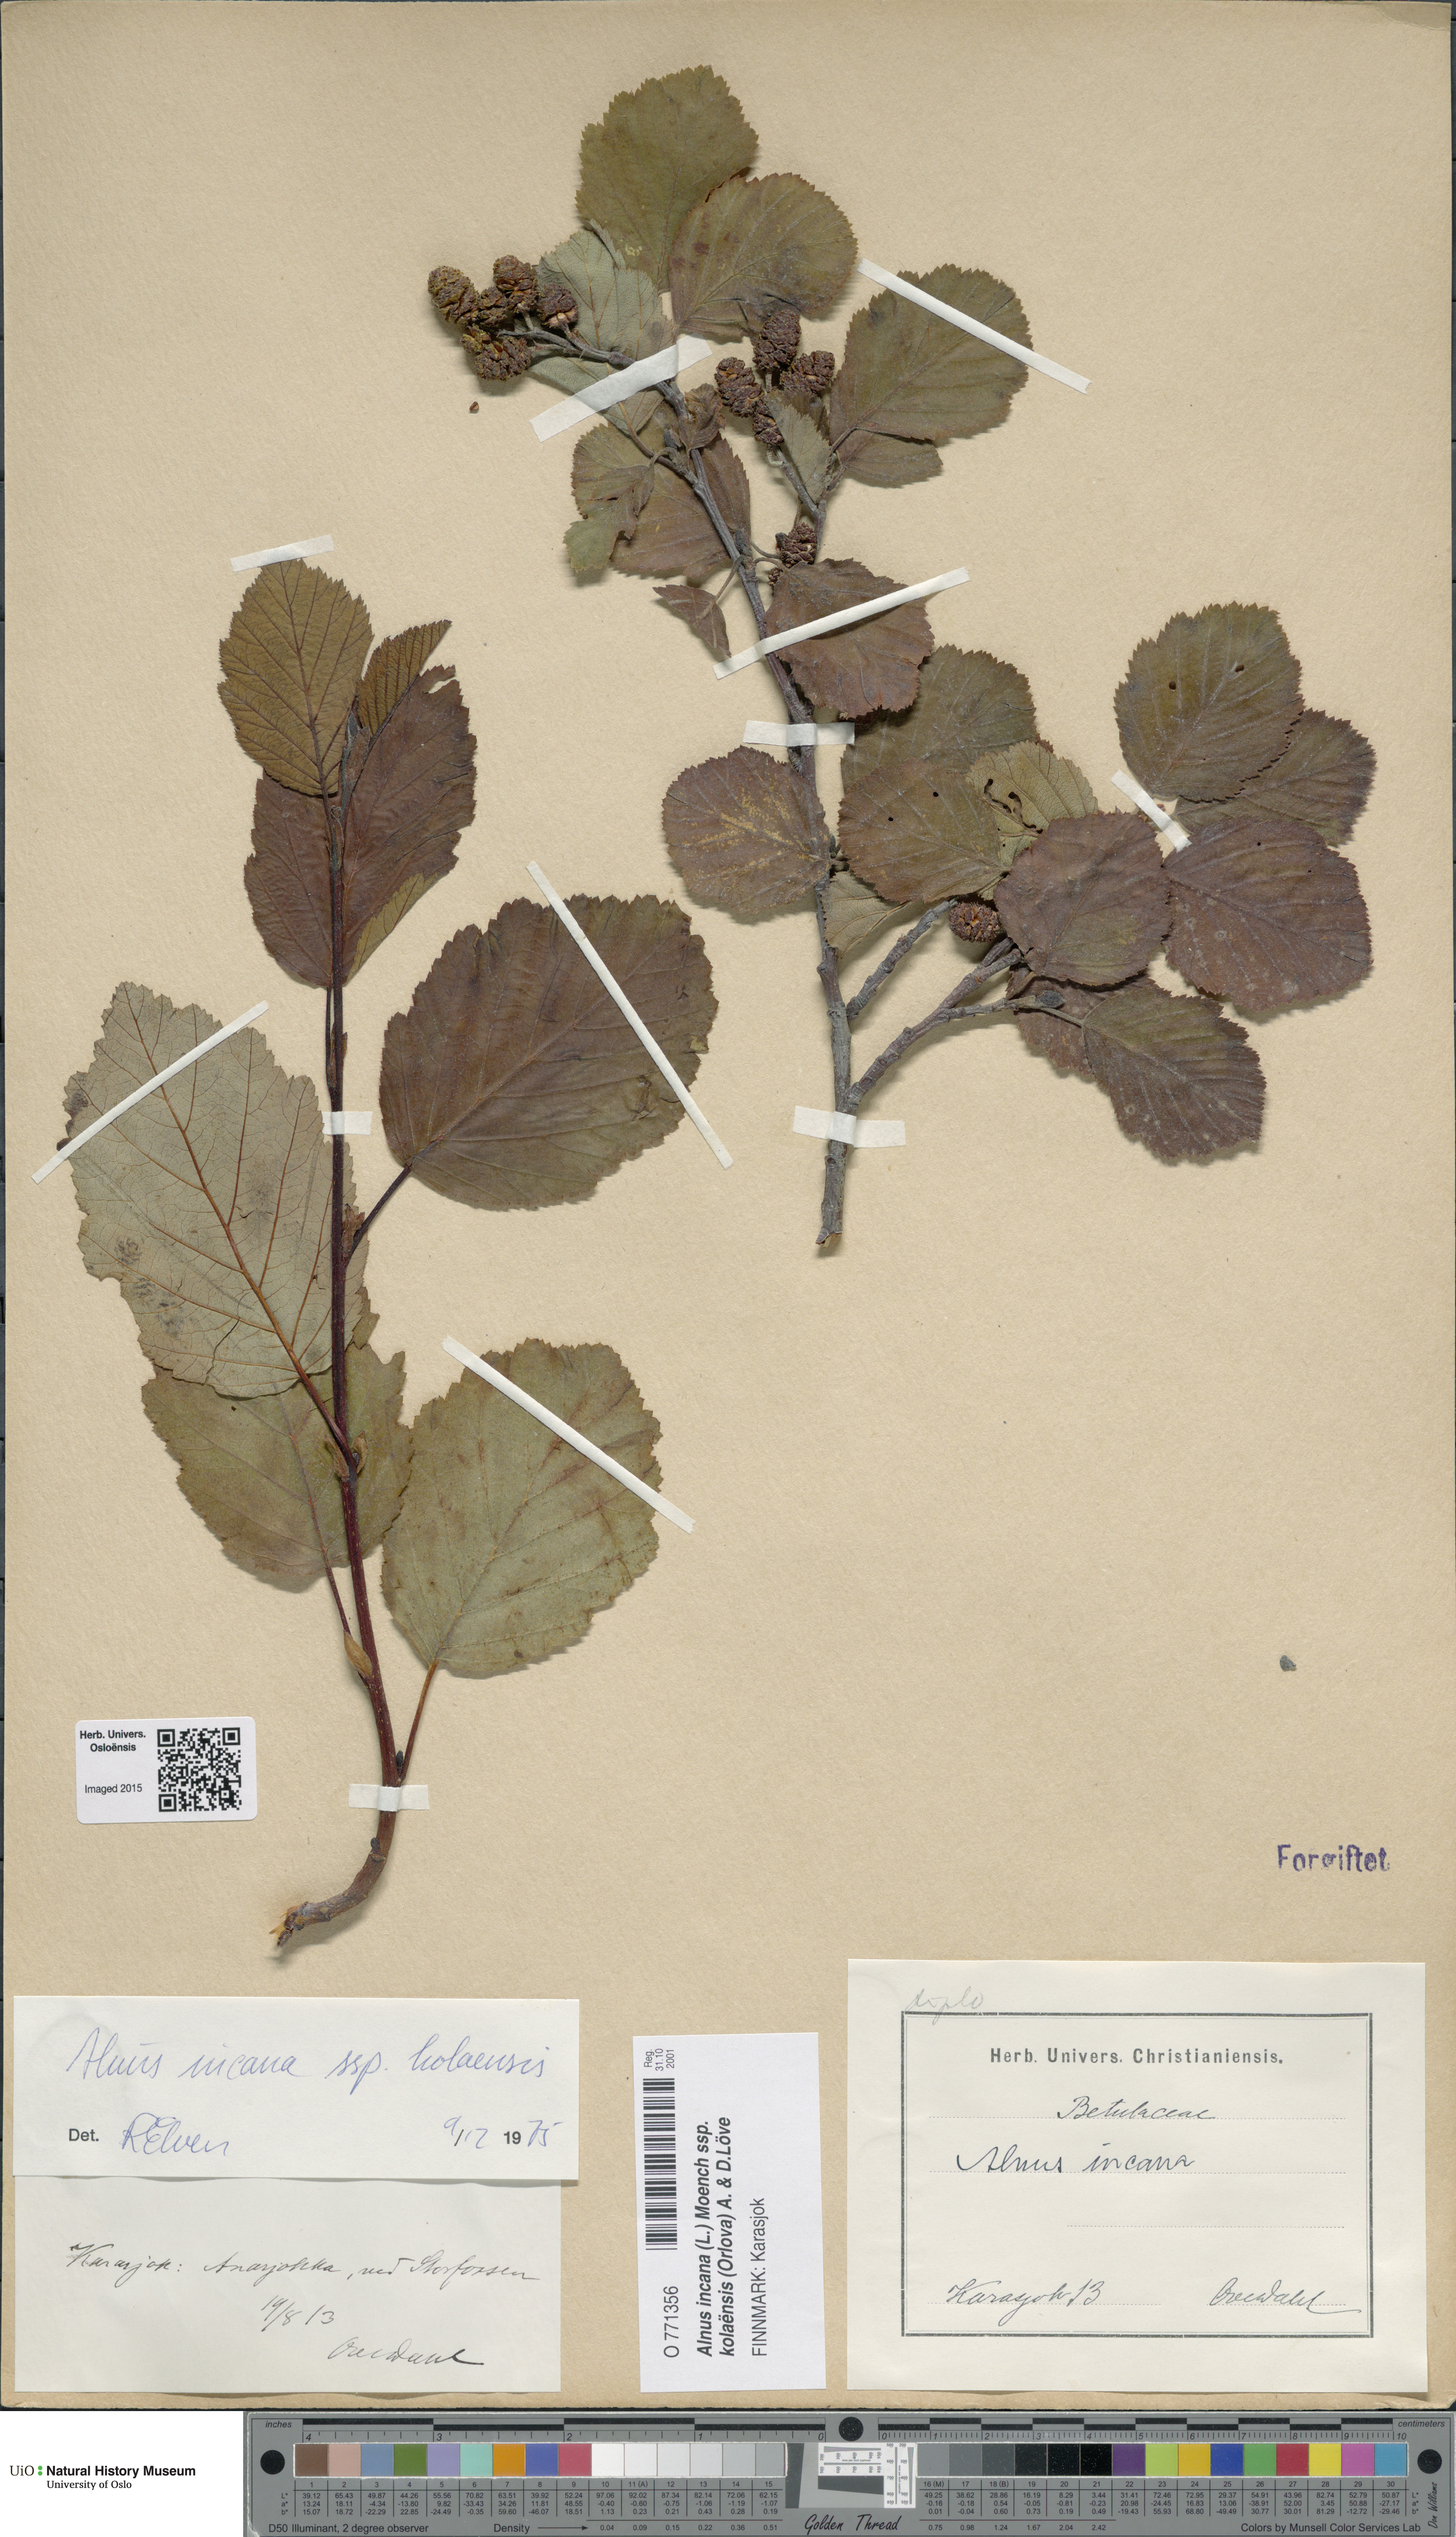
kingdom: Plantae
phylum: Tracheophyta
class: Magnoliopsida
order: Fagales
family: Betulaceae
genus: Alnus
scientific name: Alnus incana
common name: Grey alder
